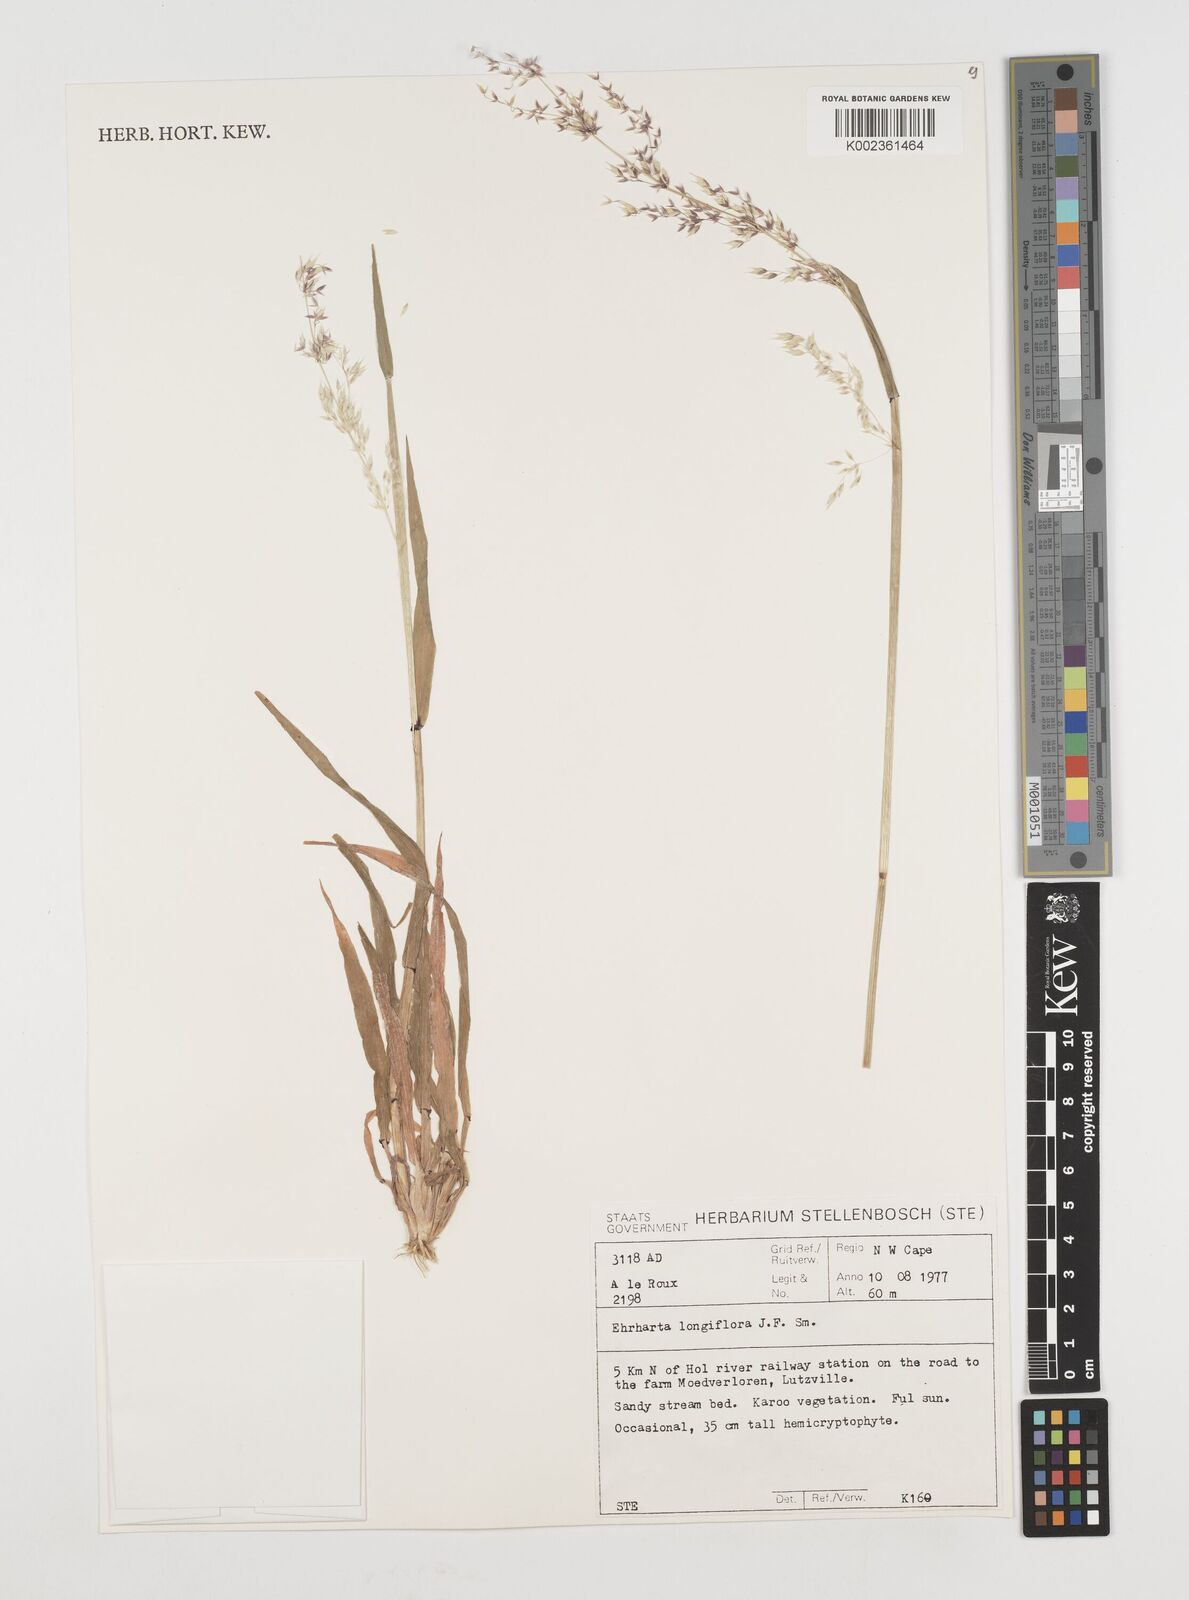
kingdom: Plantae
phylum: Tracheophyta
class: Liliopsida
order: Poales
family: Poaceae
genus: Ehrharta
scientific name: Ehrharta longiflora
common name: Longflowered veldtgrass
